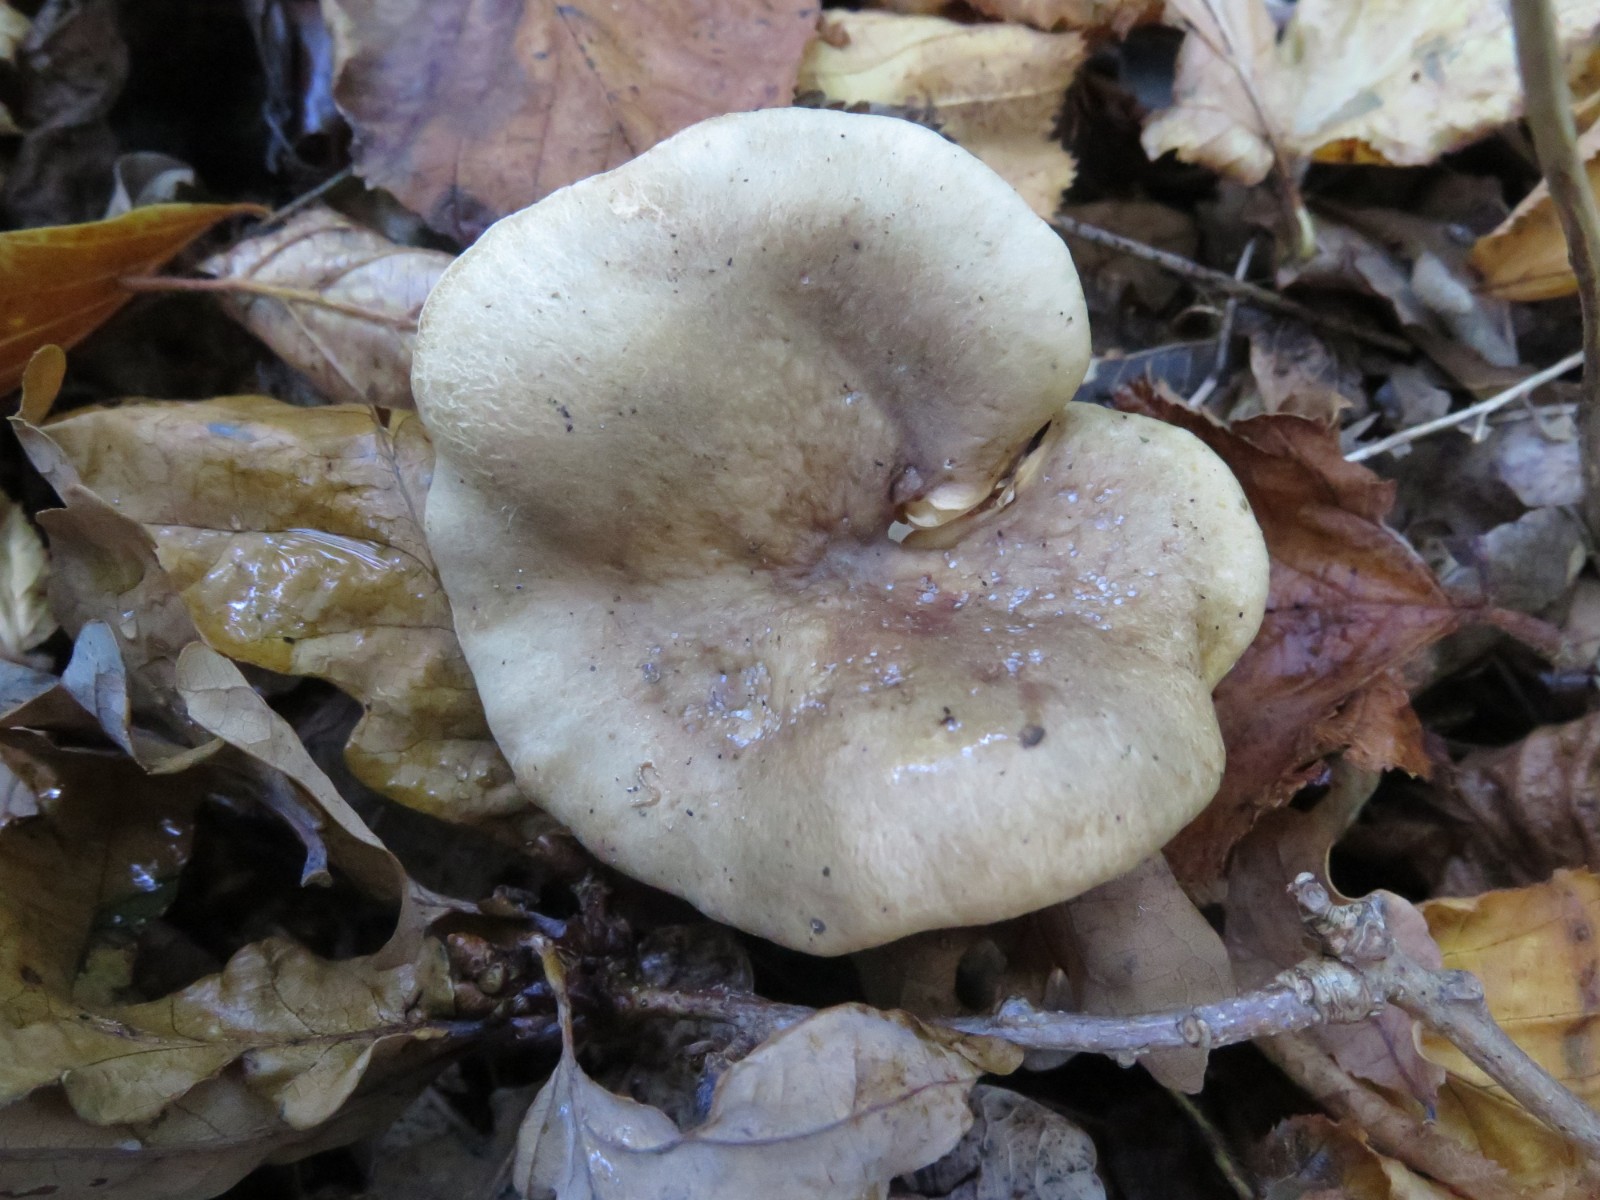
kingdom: Fungi
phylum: Basidiomycota
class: Agaricomycetes
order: Russulales
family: Russulaceae
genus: Lactarius
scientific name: Lactarius pyrogalus
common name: hassel-mælkehat
